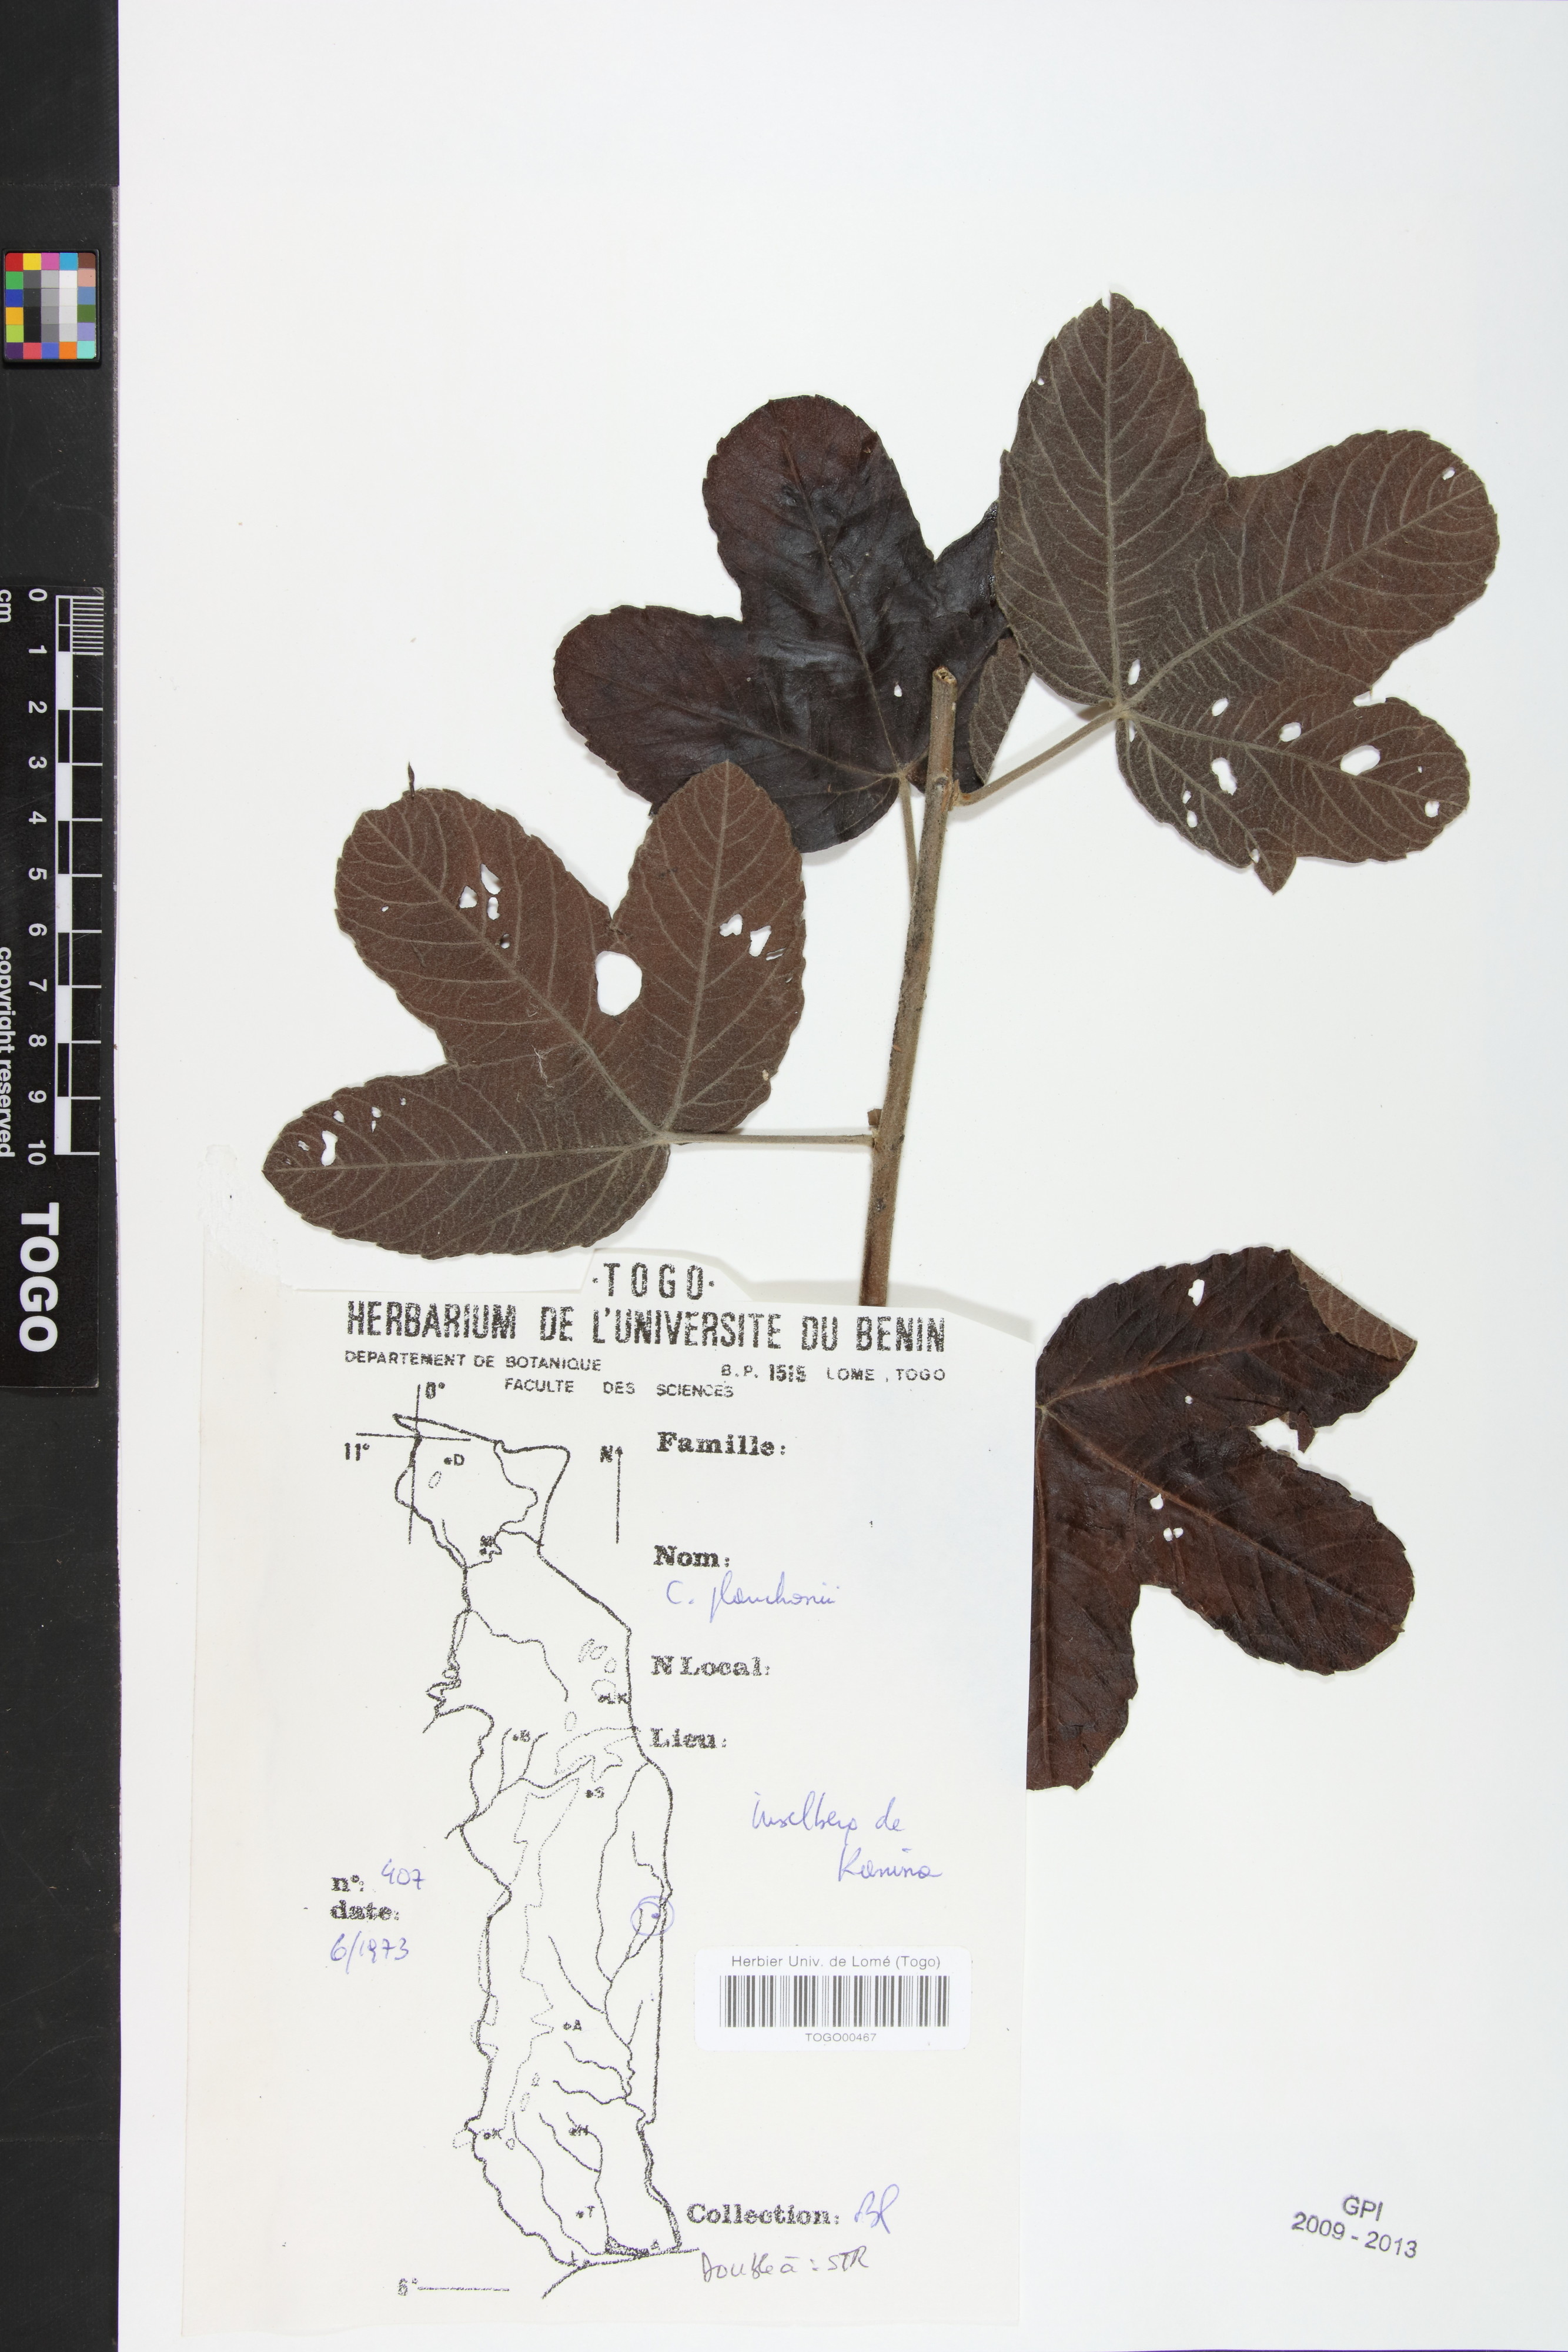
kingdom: Plantae
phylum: Tracheophyta
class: Magnoliopsida
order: Malvales
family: Cochlospermaceae
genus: Cochlospermum
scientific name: Cochlospermum planchonii
